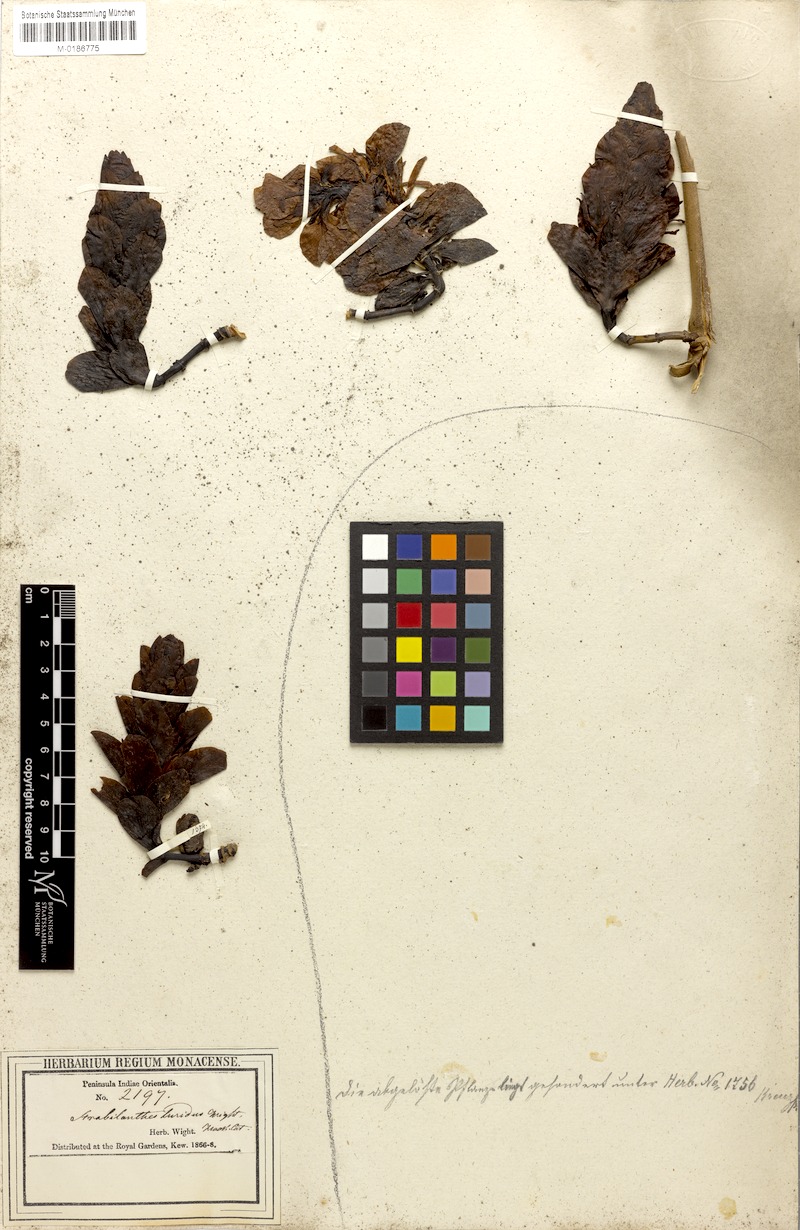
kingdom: Plantae
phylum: Tracheophyta
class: Magnoliopsida
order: Lamiales
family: Acanthaceae
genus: Strobilanthes
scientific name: Strobilanthes lurida
